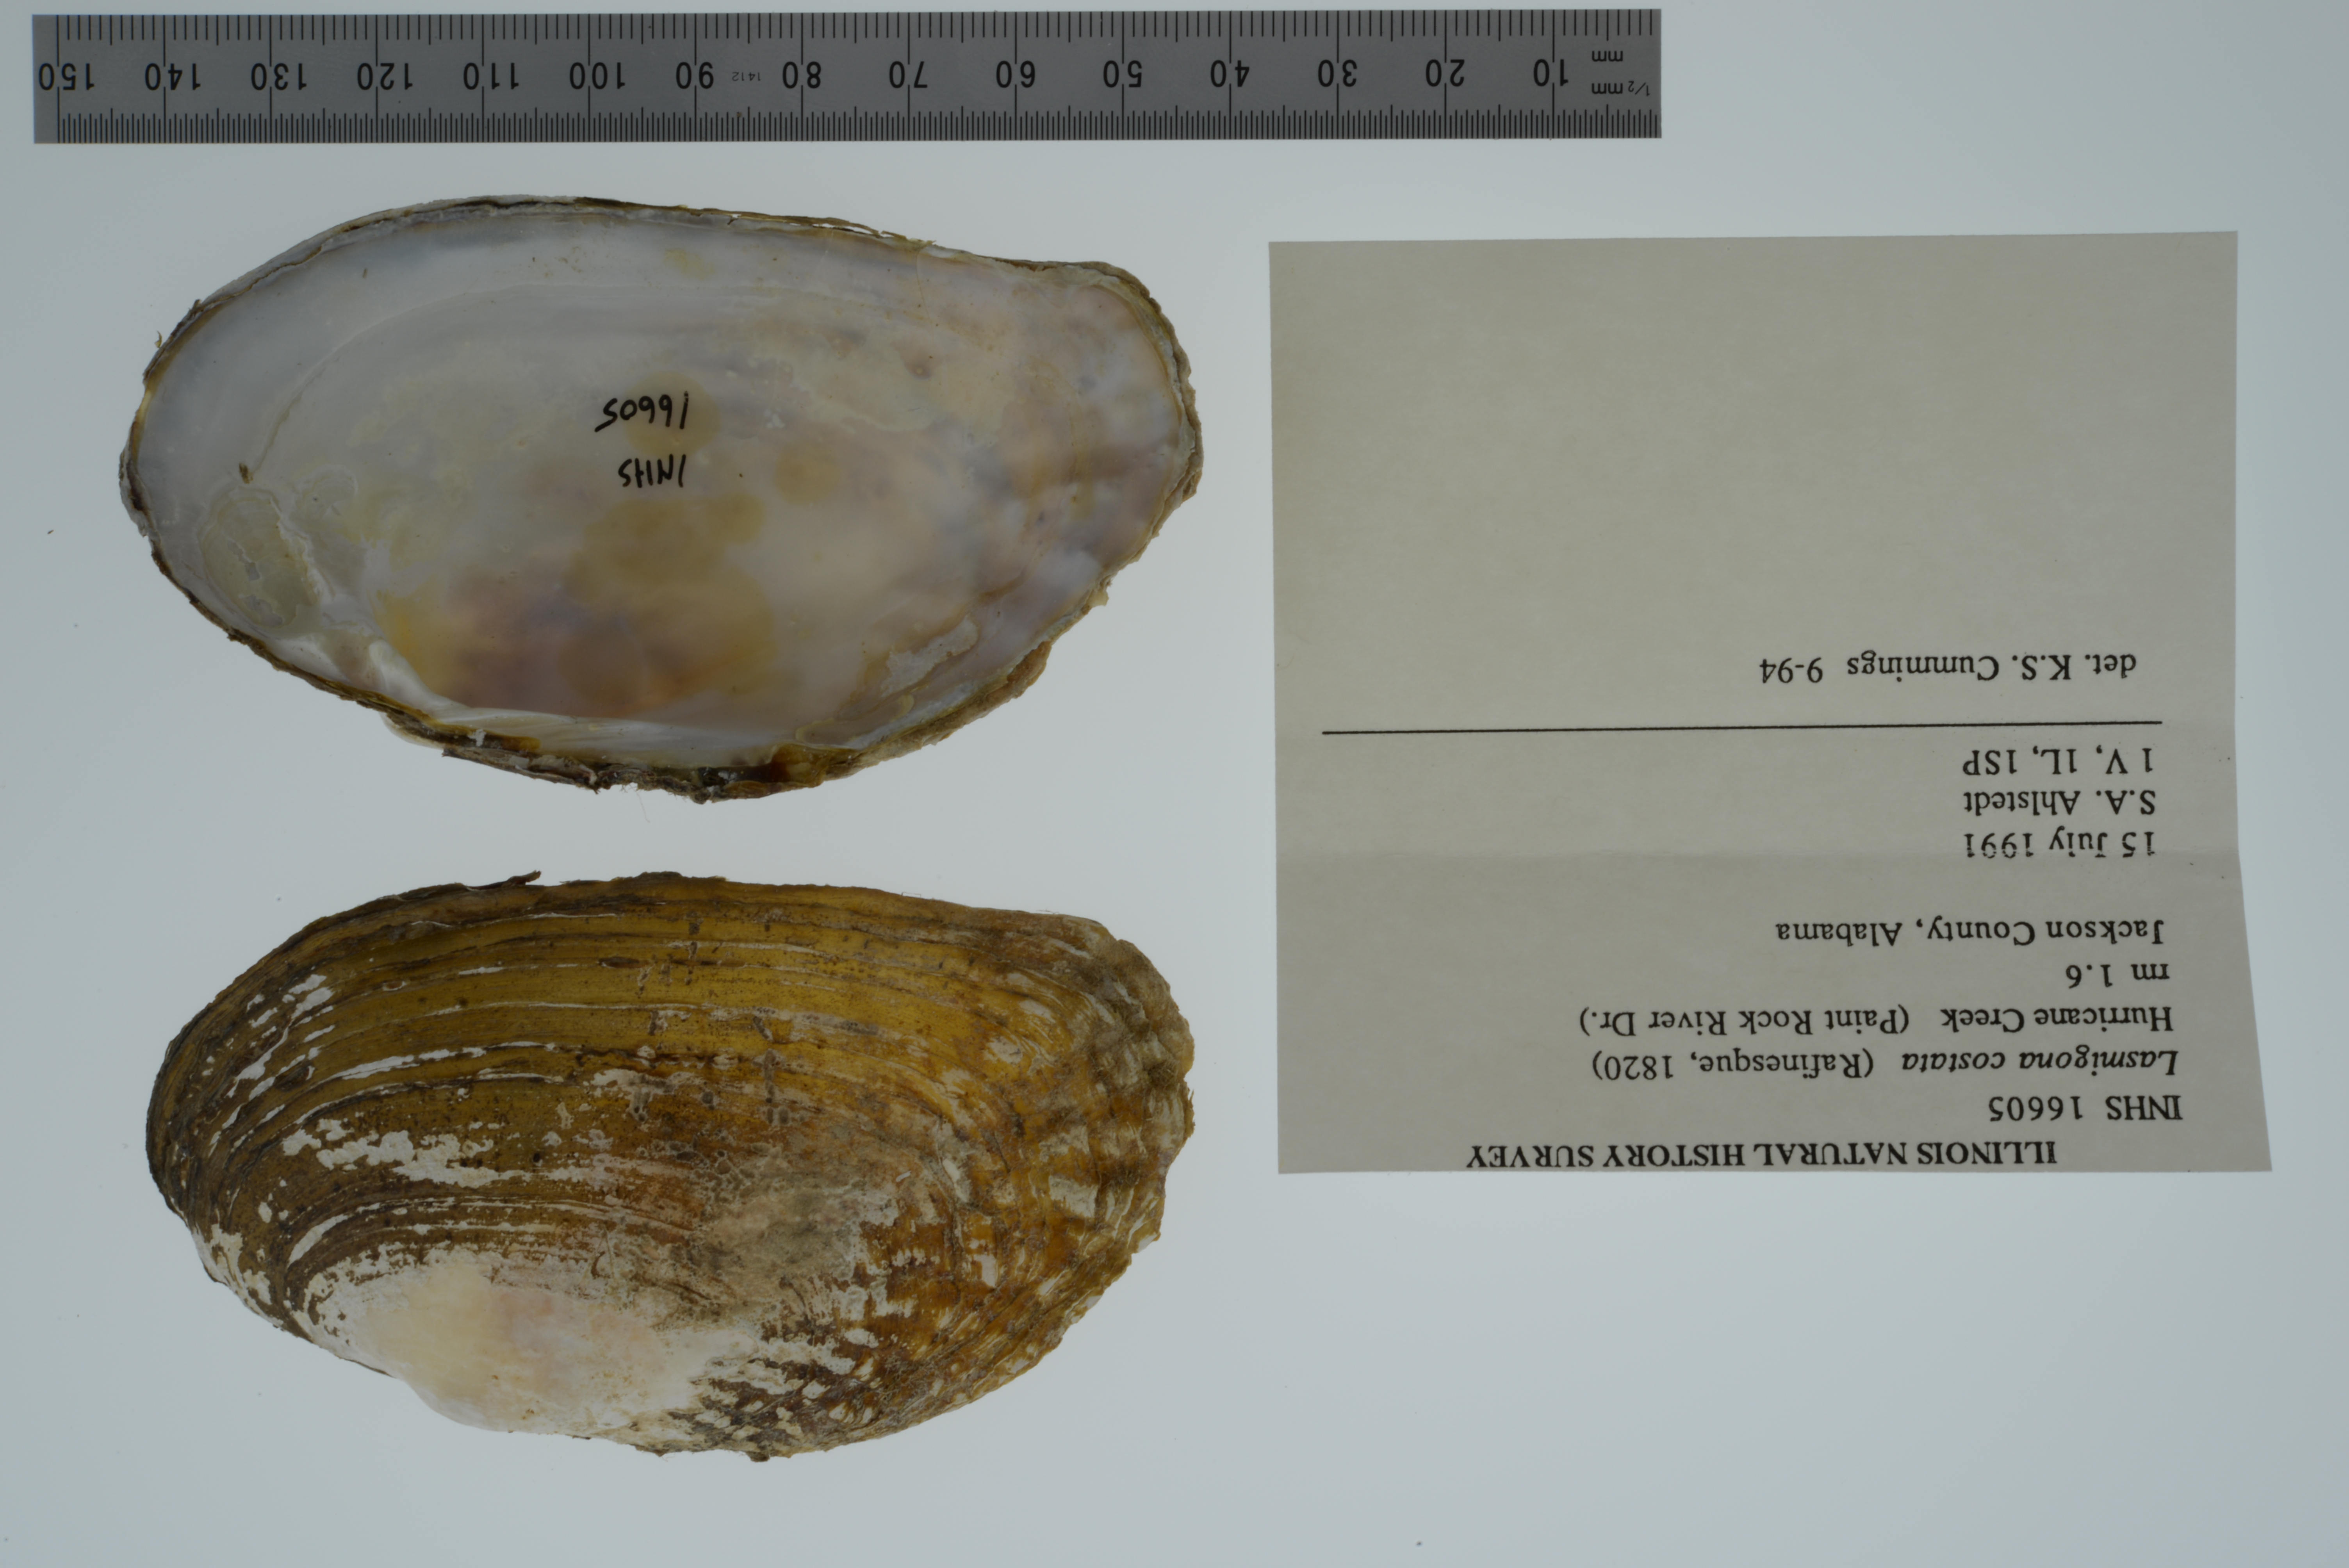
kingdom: Animalia
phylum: Mollusca
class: Bivalvia
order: Unionida
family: Unionidae
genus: Lasmigona
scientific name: Lasmigona costata
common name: Flutedshell
